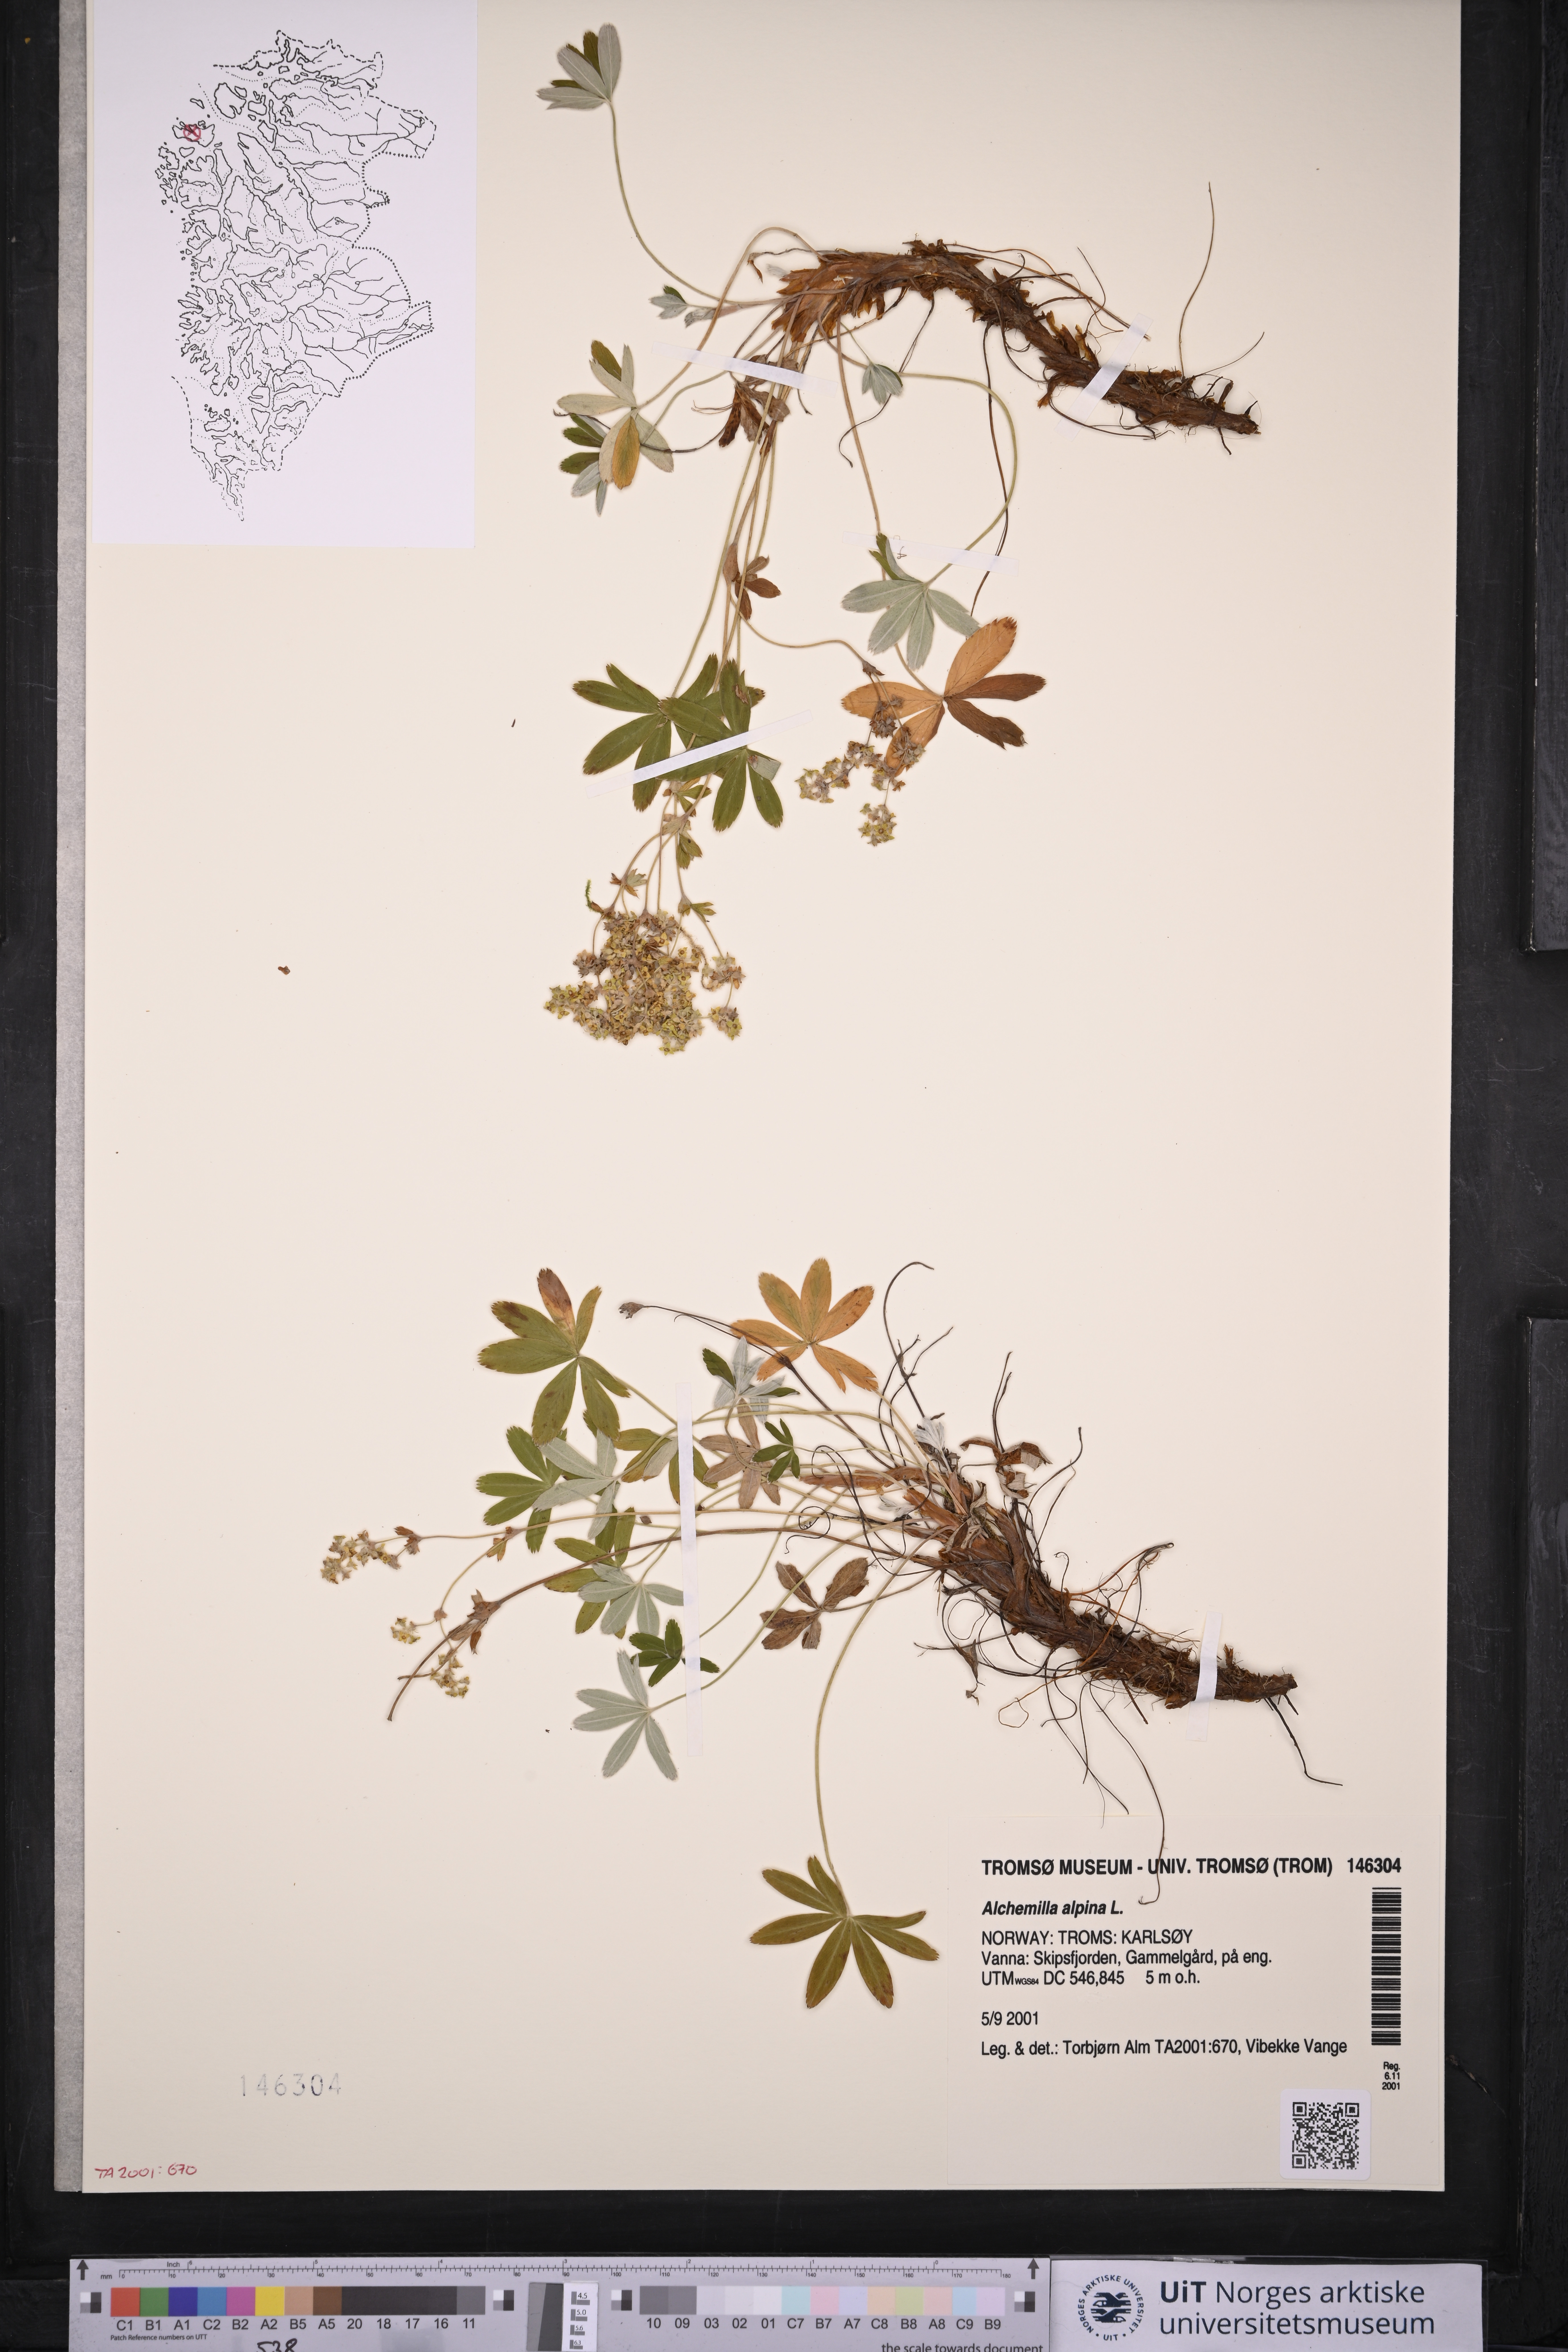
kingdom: Plantae
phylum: Tracheophyta
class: Magnoliopsida
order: Rosales
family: Rosaceae
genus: Alchemilla
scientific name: Alchemilla alpina
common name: Alpine lady's-mantle
